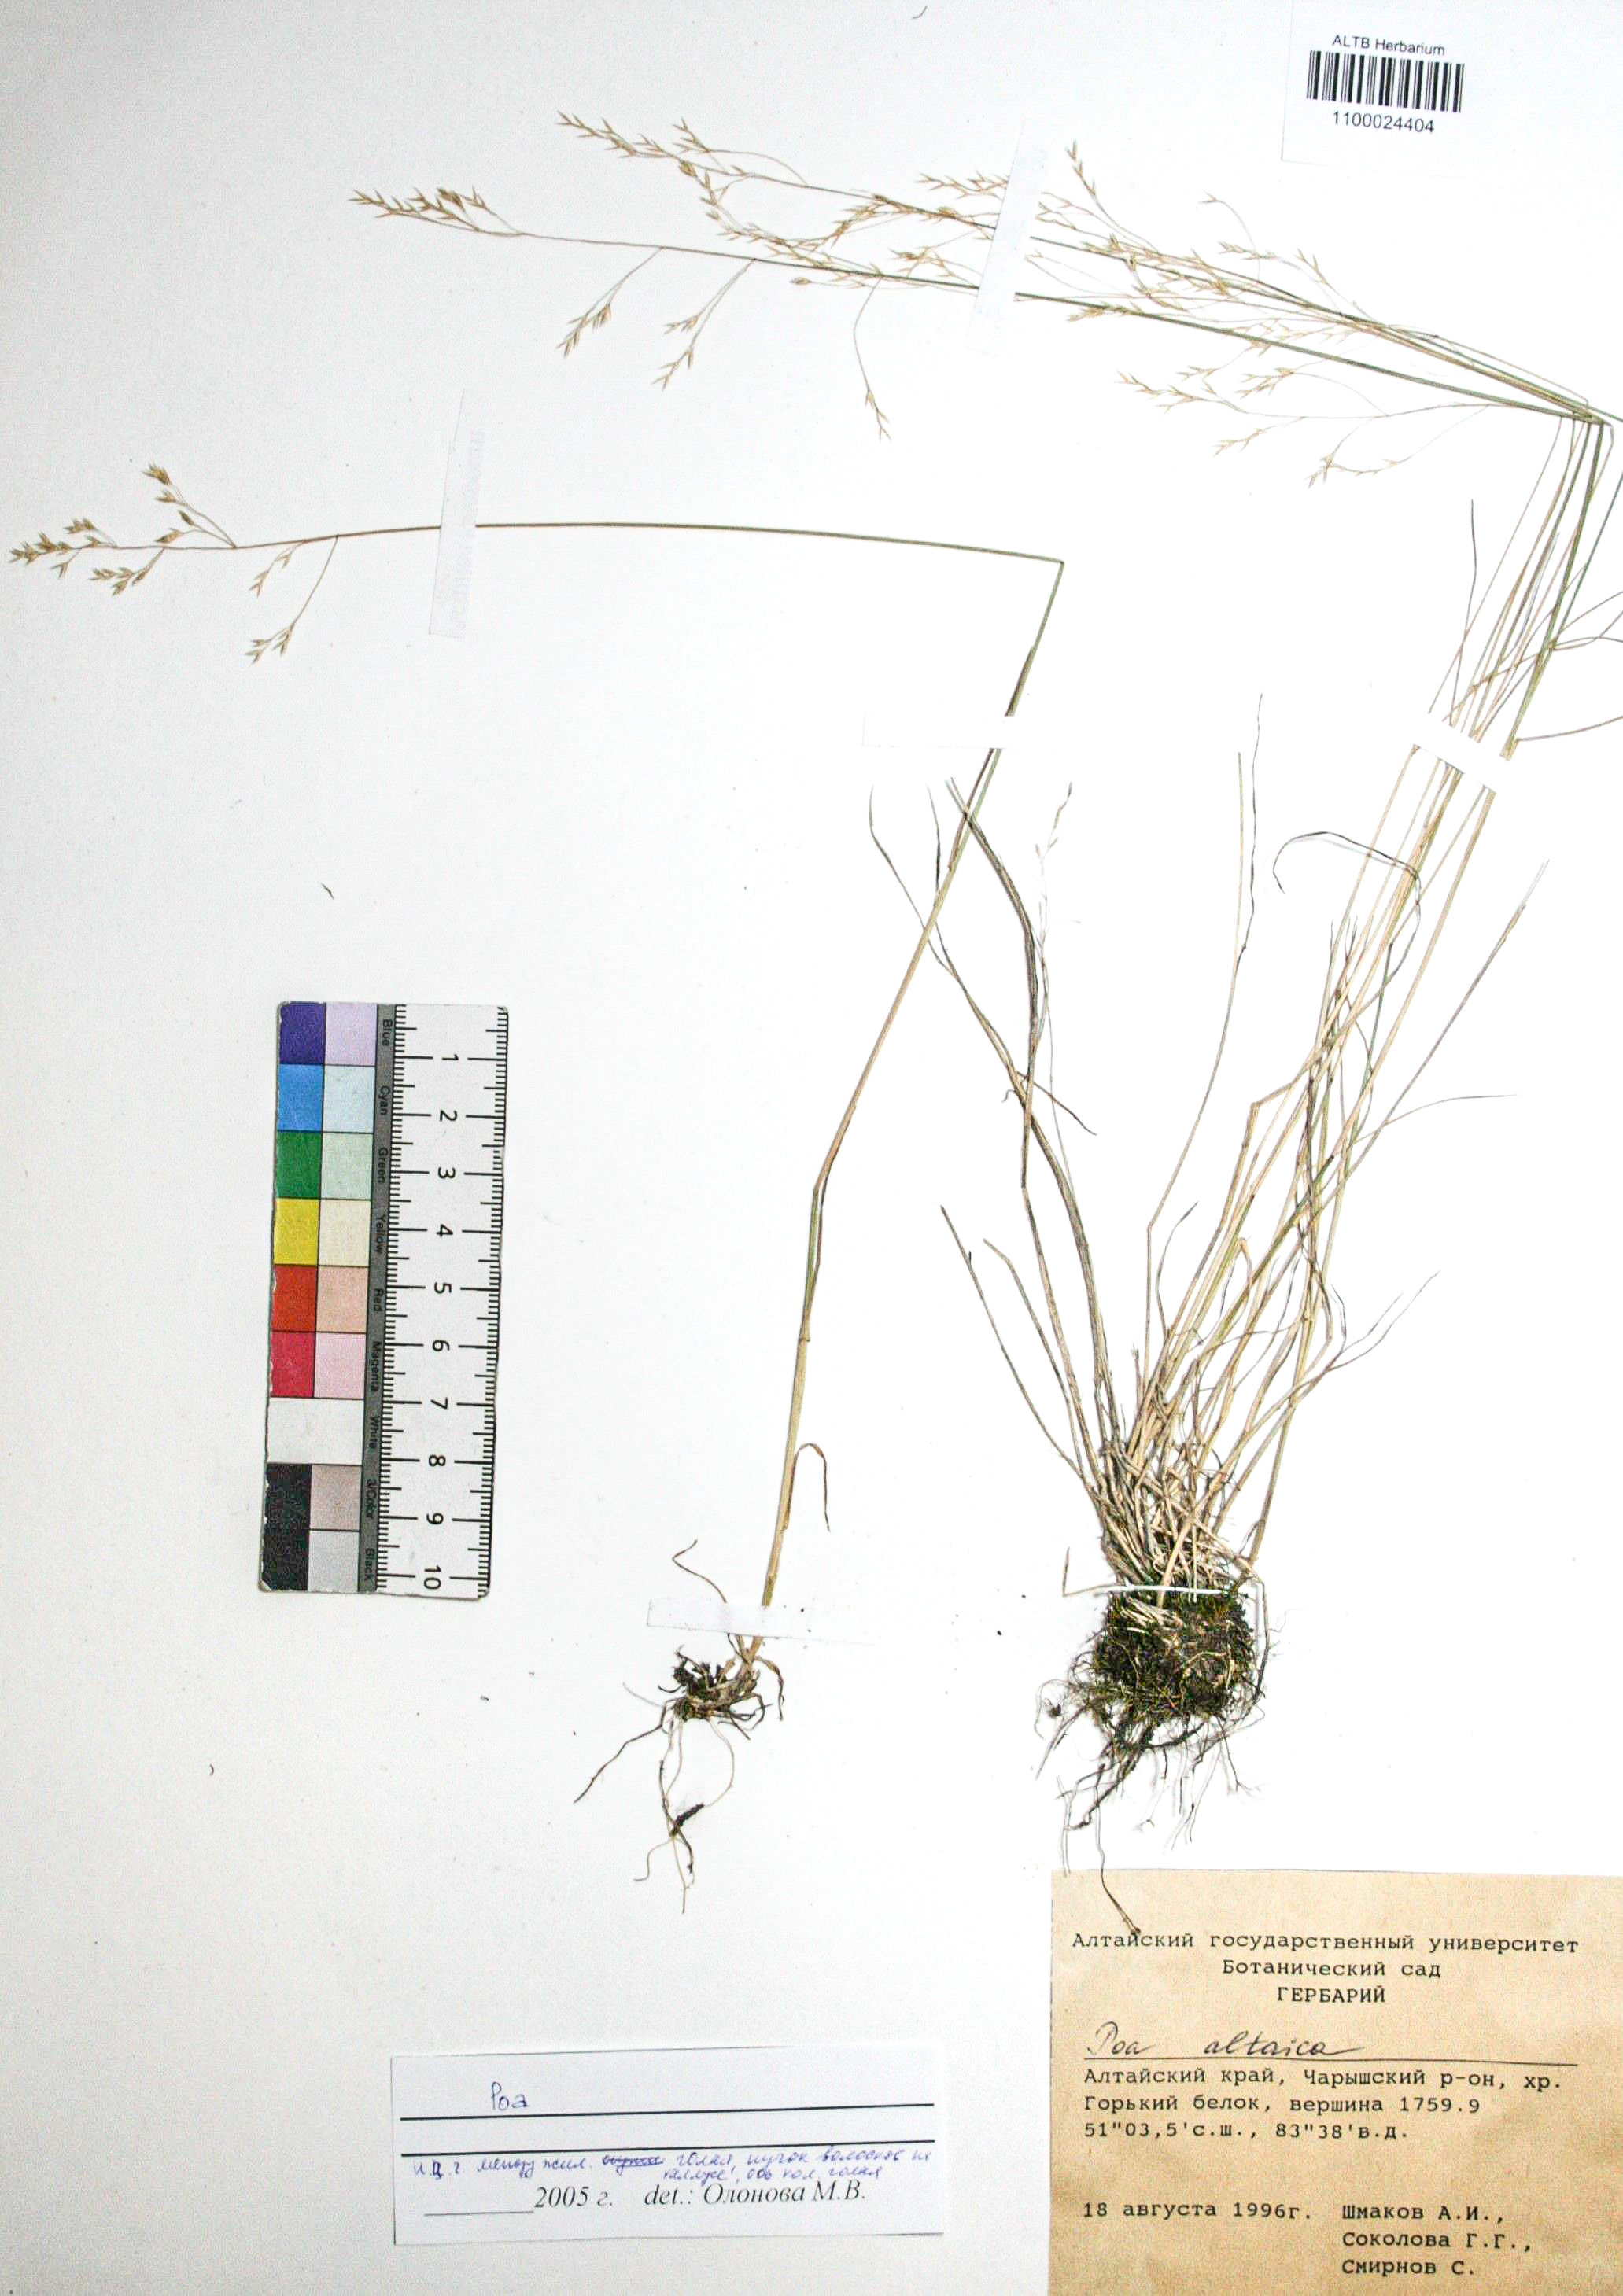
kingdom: Plantae
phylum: Tracheophyta
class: Liliopsida
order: Poales
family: Poaceae
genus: Poa
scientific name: Poa glauca
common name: Glaucous bluegrass
